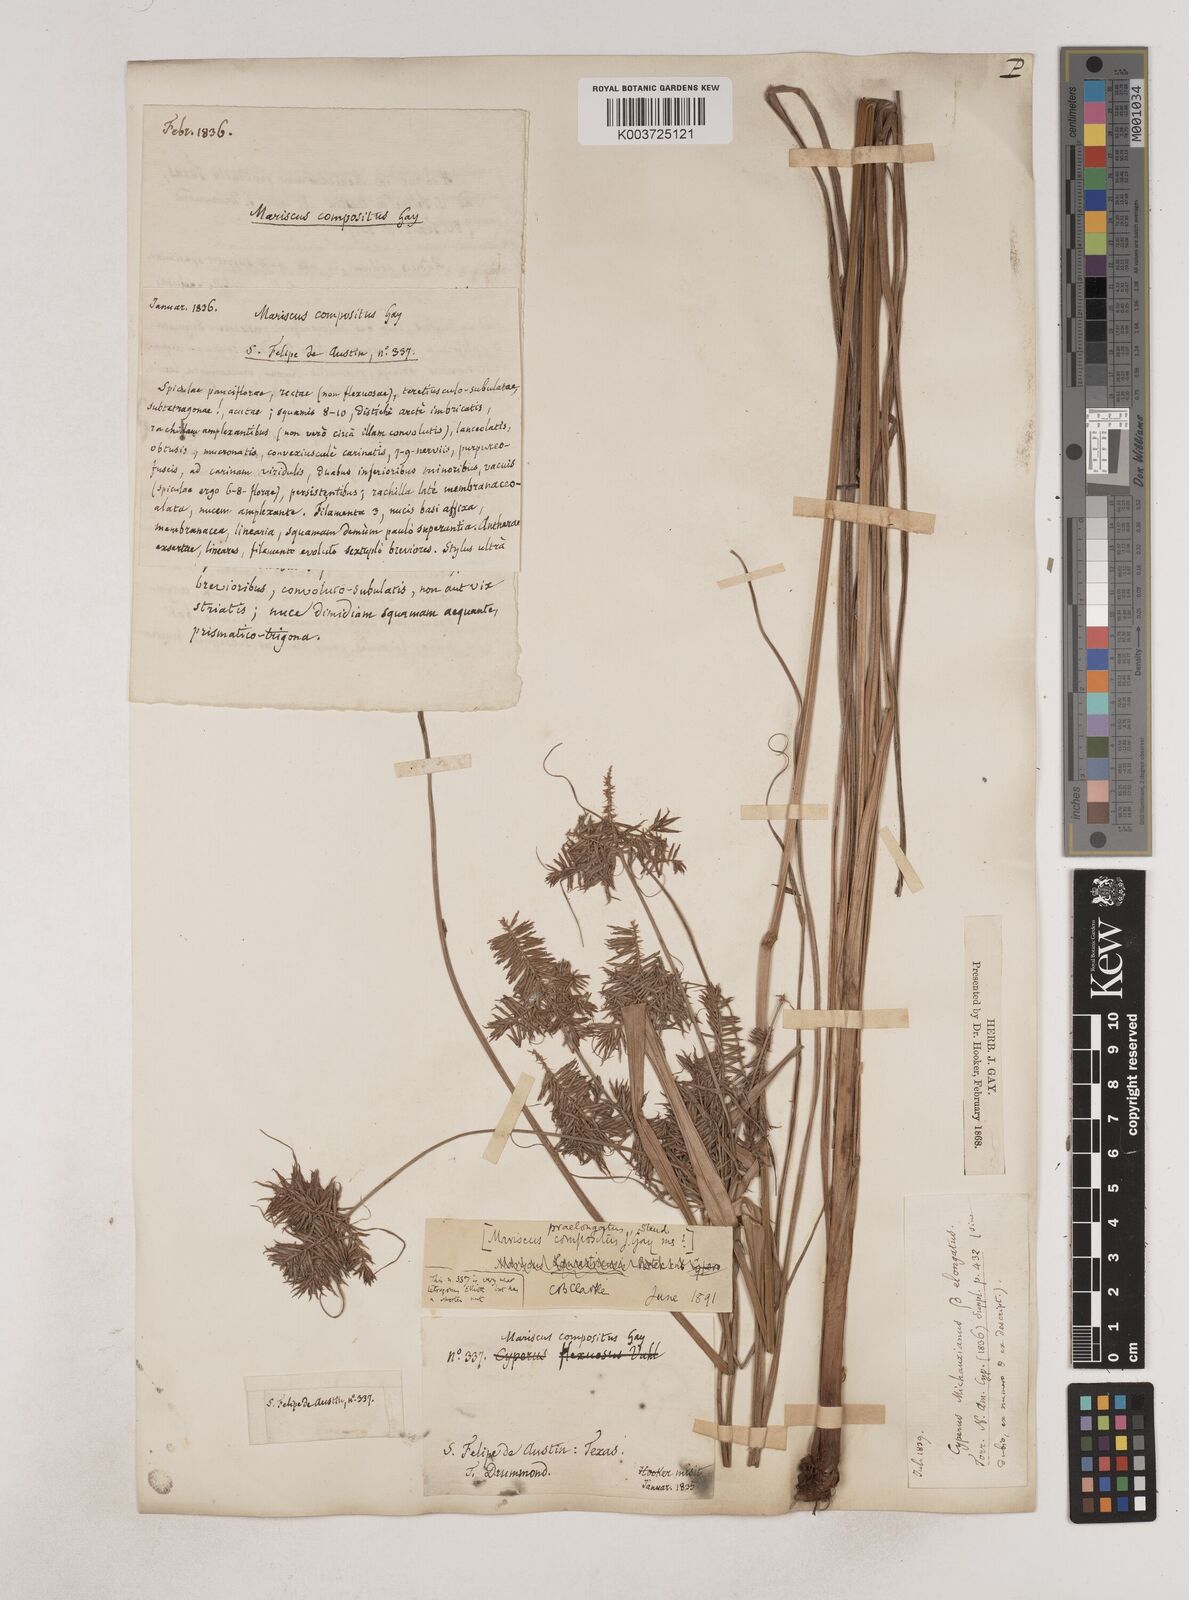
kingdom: Plantae
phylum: Tracheophyta
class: Liliopsida
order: Poales
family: Cyperaceae
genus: Cyperus
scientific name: Cyperus strigosus
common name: False nutsedge
